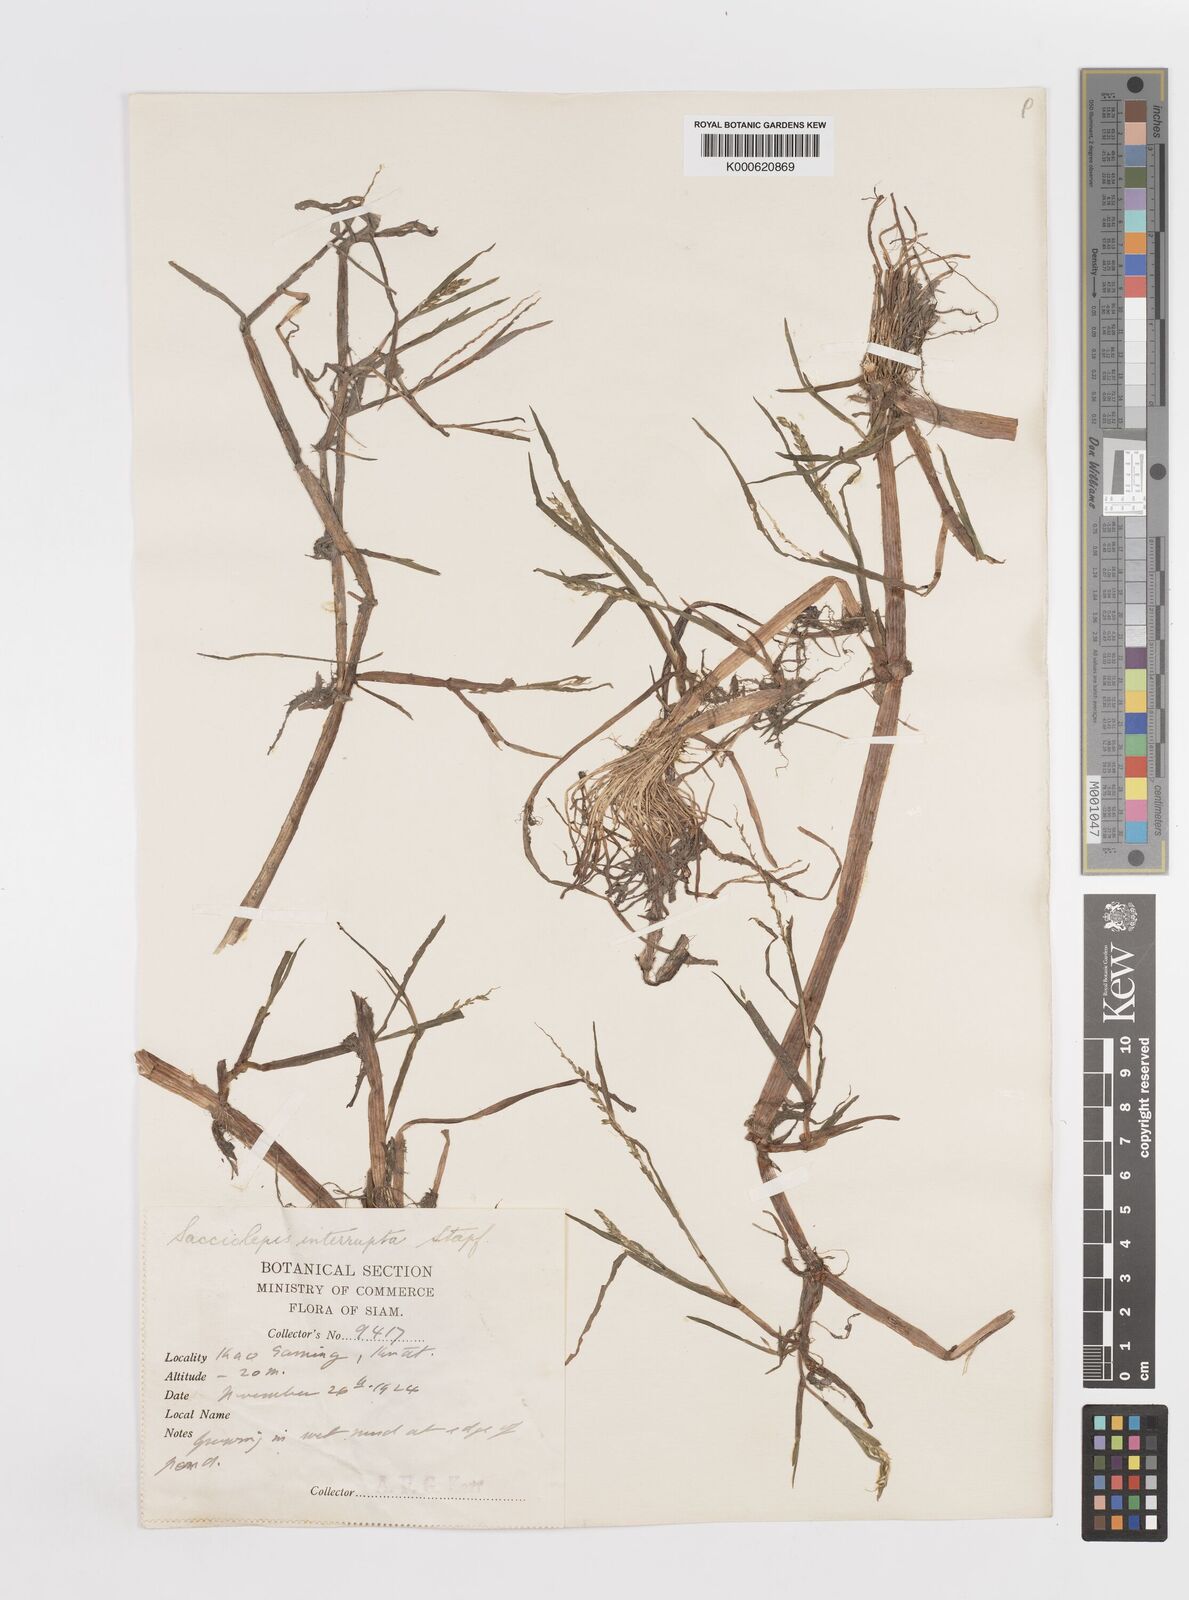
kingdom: Plantae
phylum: Tracheophyta
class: Liliopsida
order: Poales
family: Poaceae
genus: Sacciolepis
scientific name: Sacciolepis interrupta
